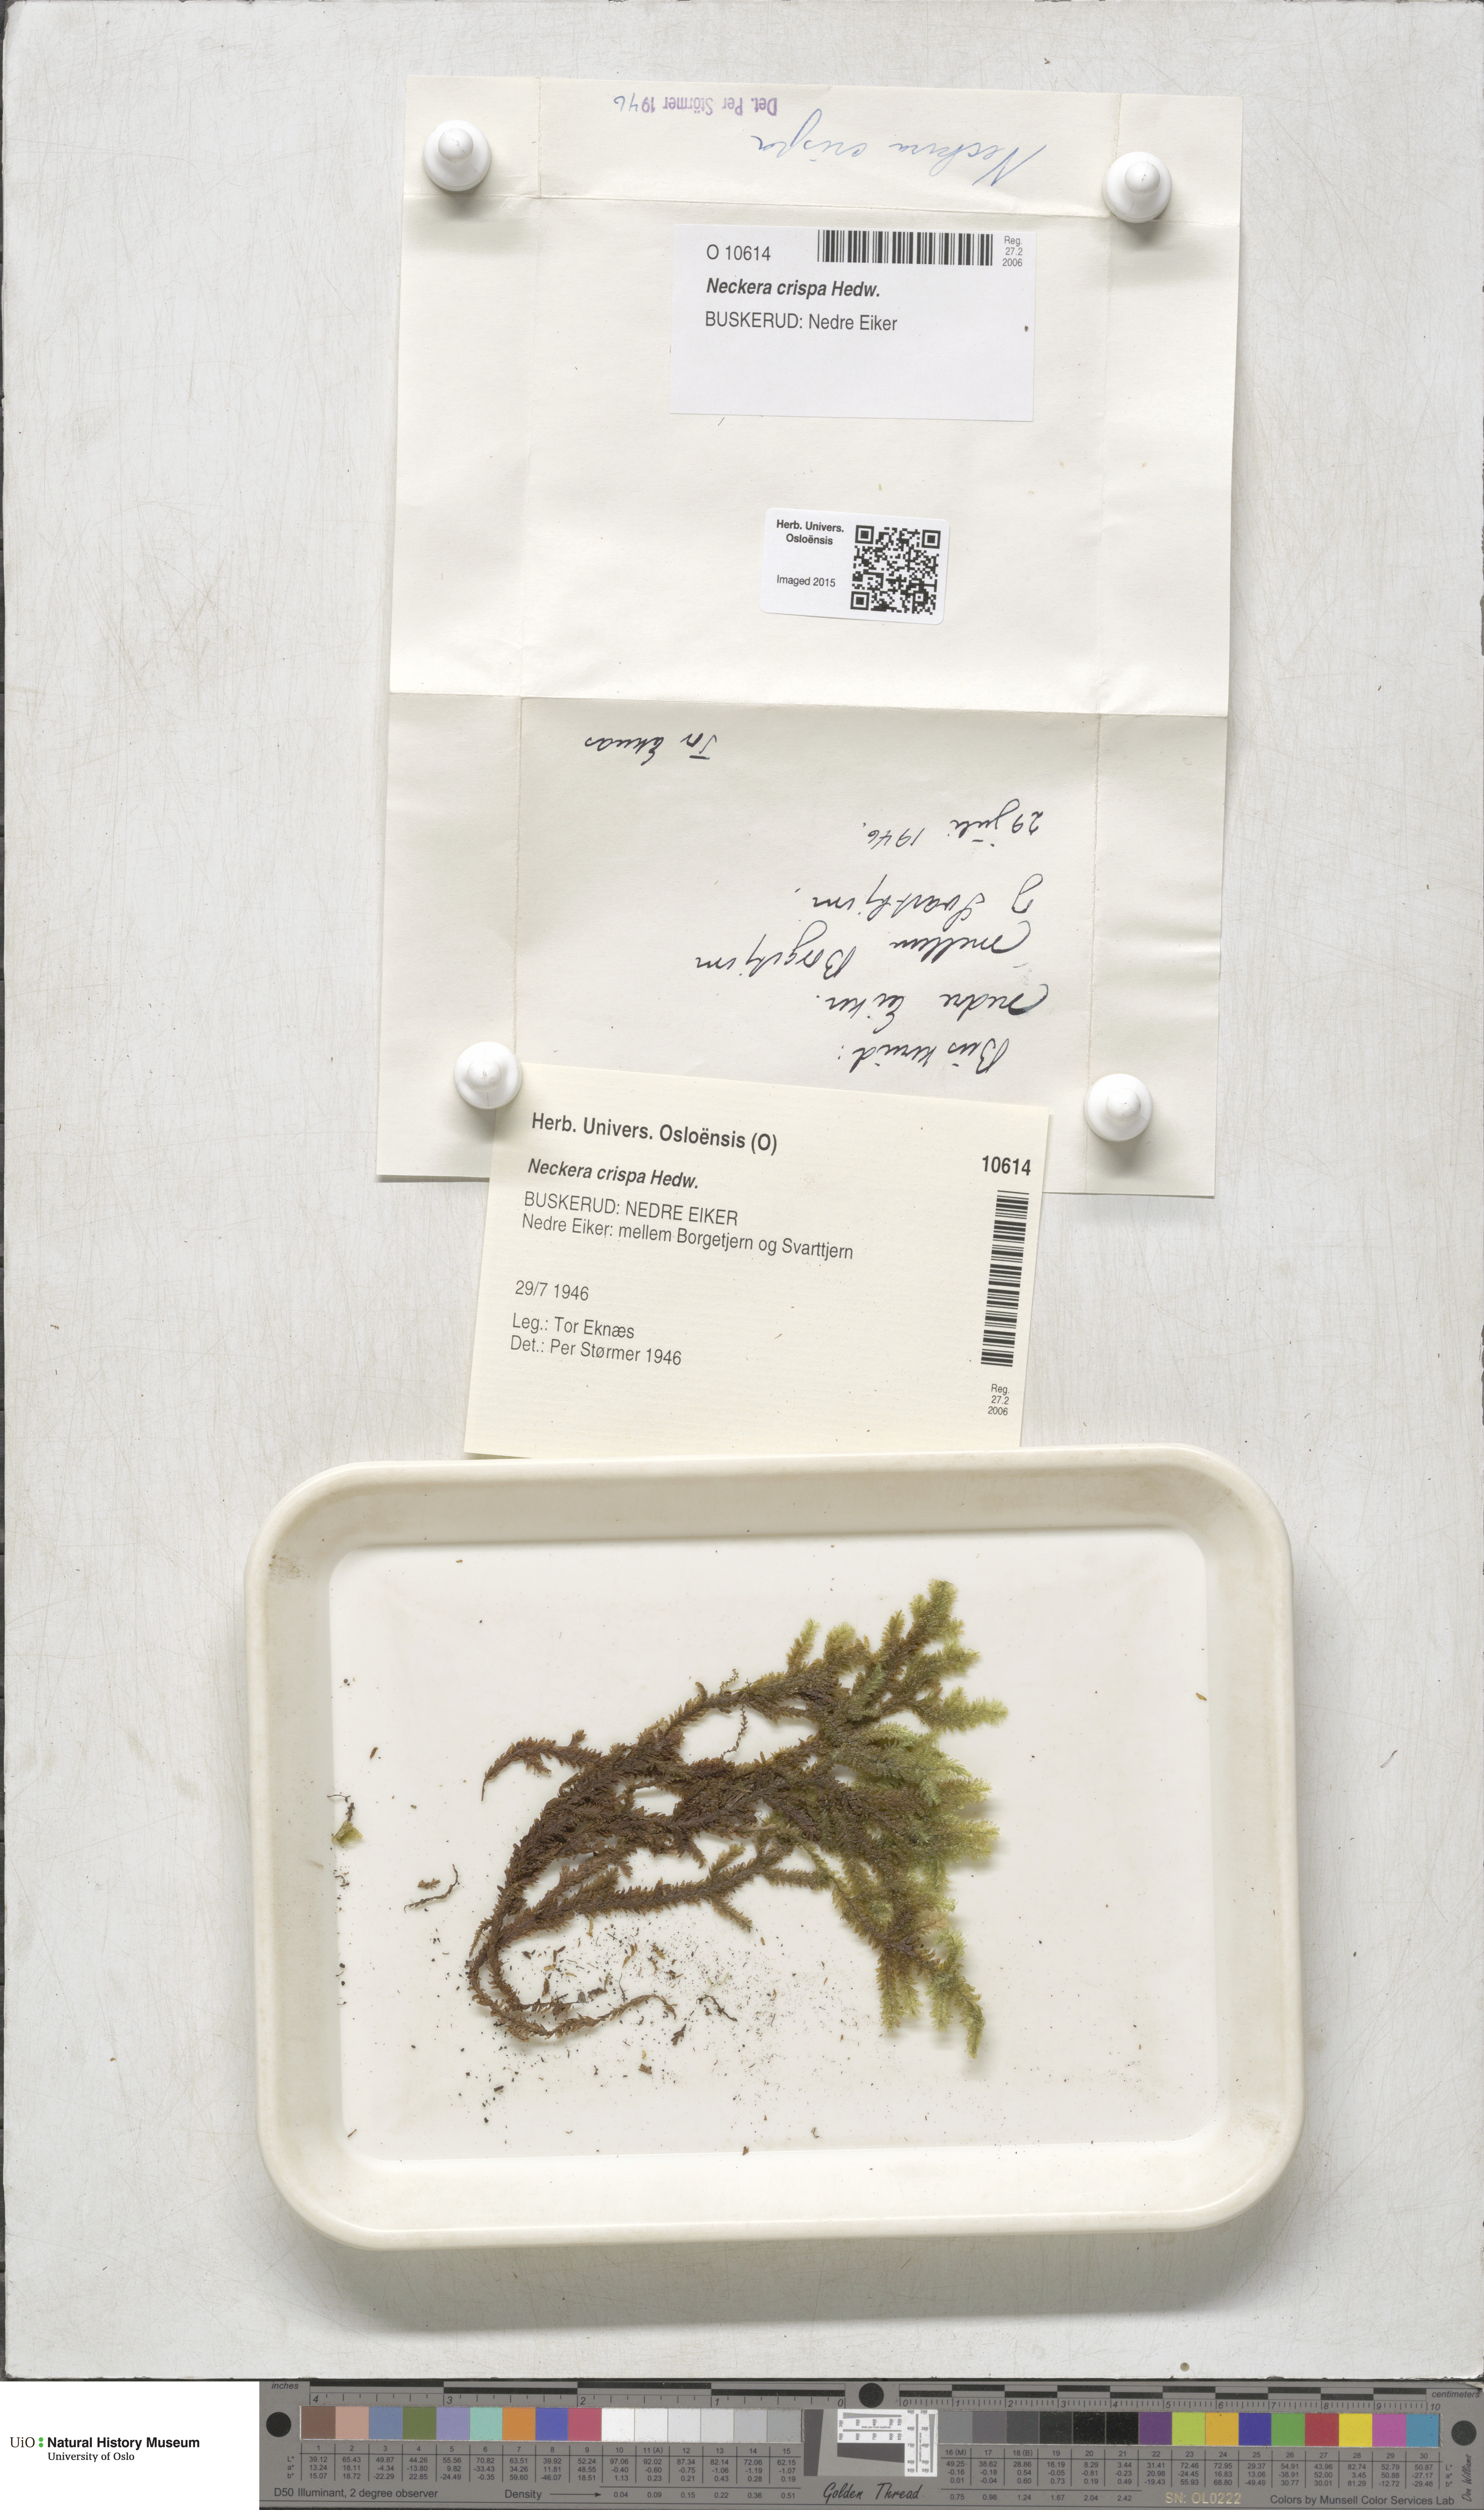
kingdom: Plantae
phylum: Bryophyta
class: Bryopsida
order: Hypnales
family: Neckeraceae
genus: Exsertotheca
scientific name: Exsertotheca crispa
